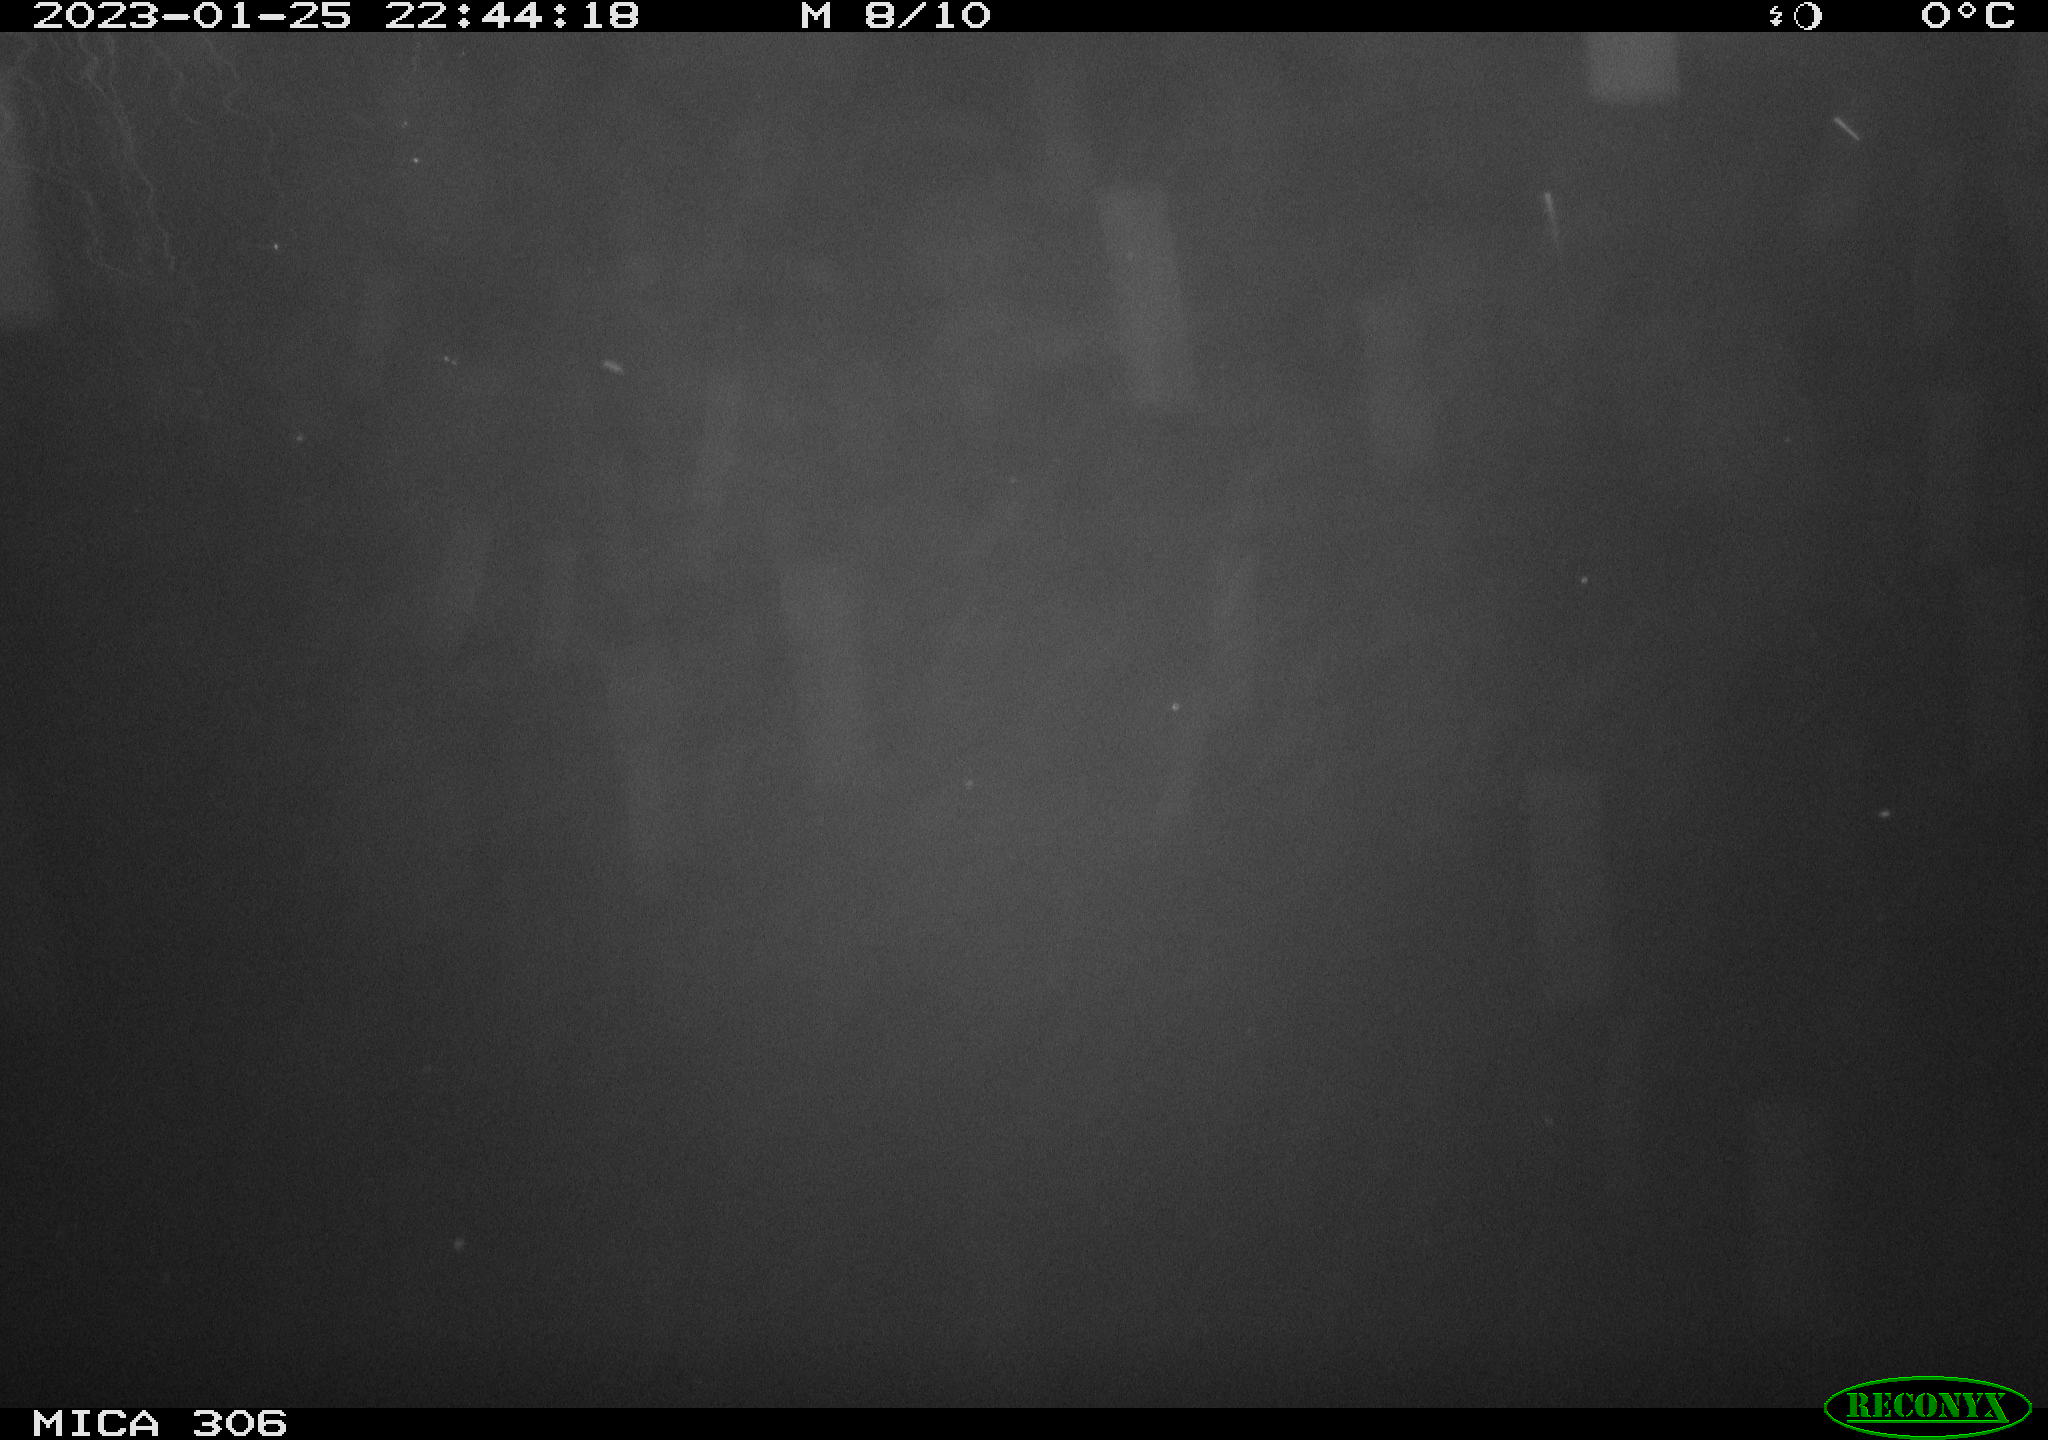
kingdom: Animalia
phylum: Chordata
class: Mammalia
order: Rodentia
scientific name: Rodentia
